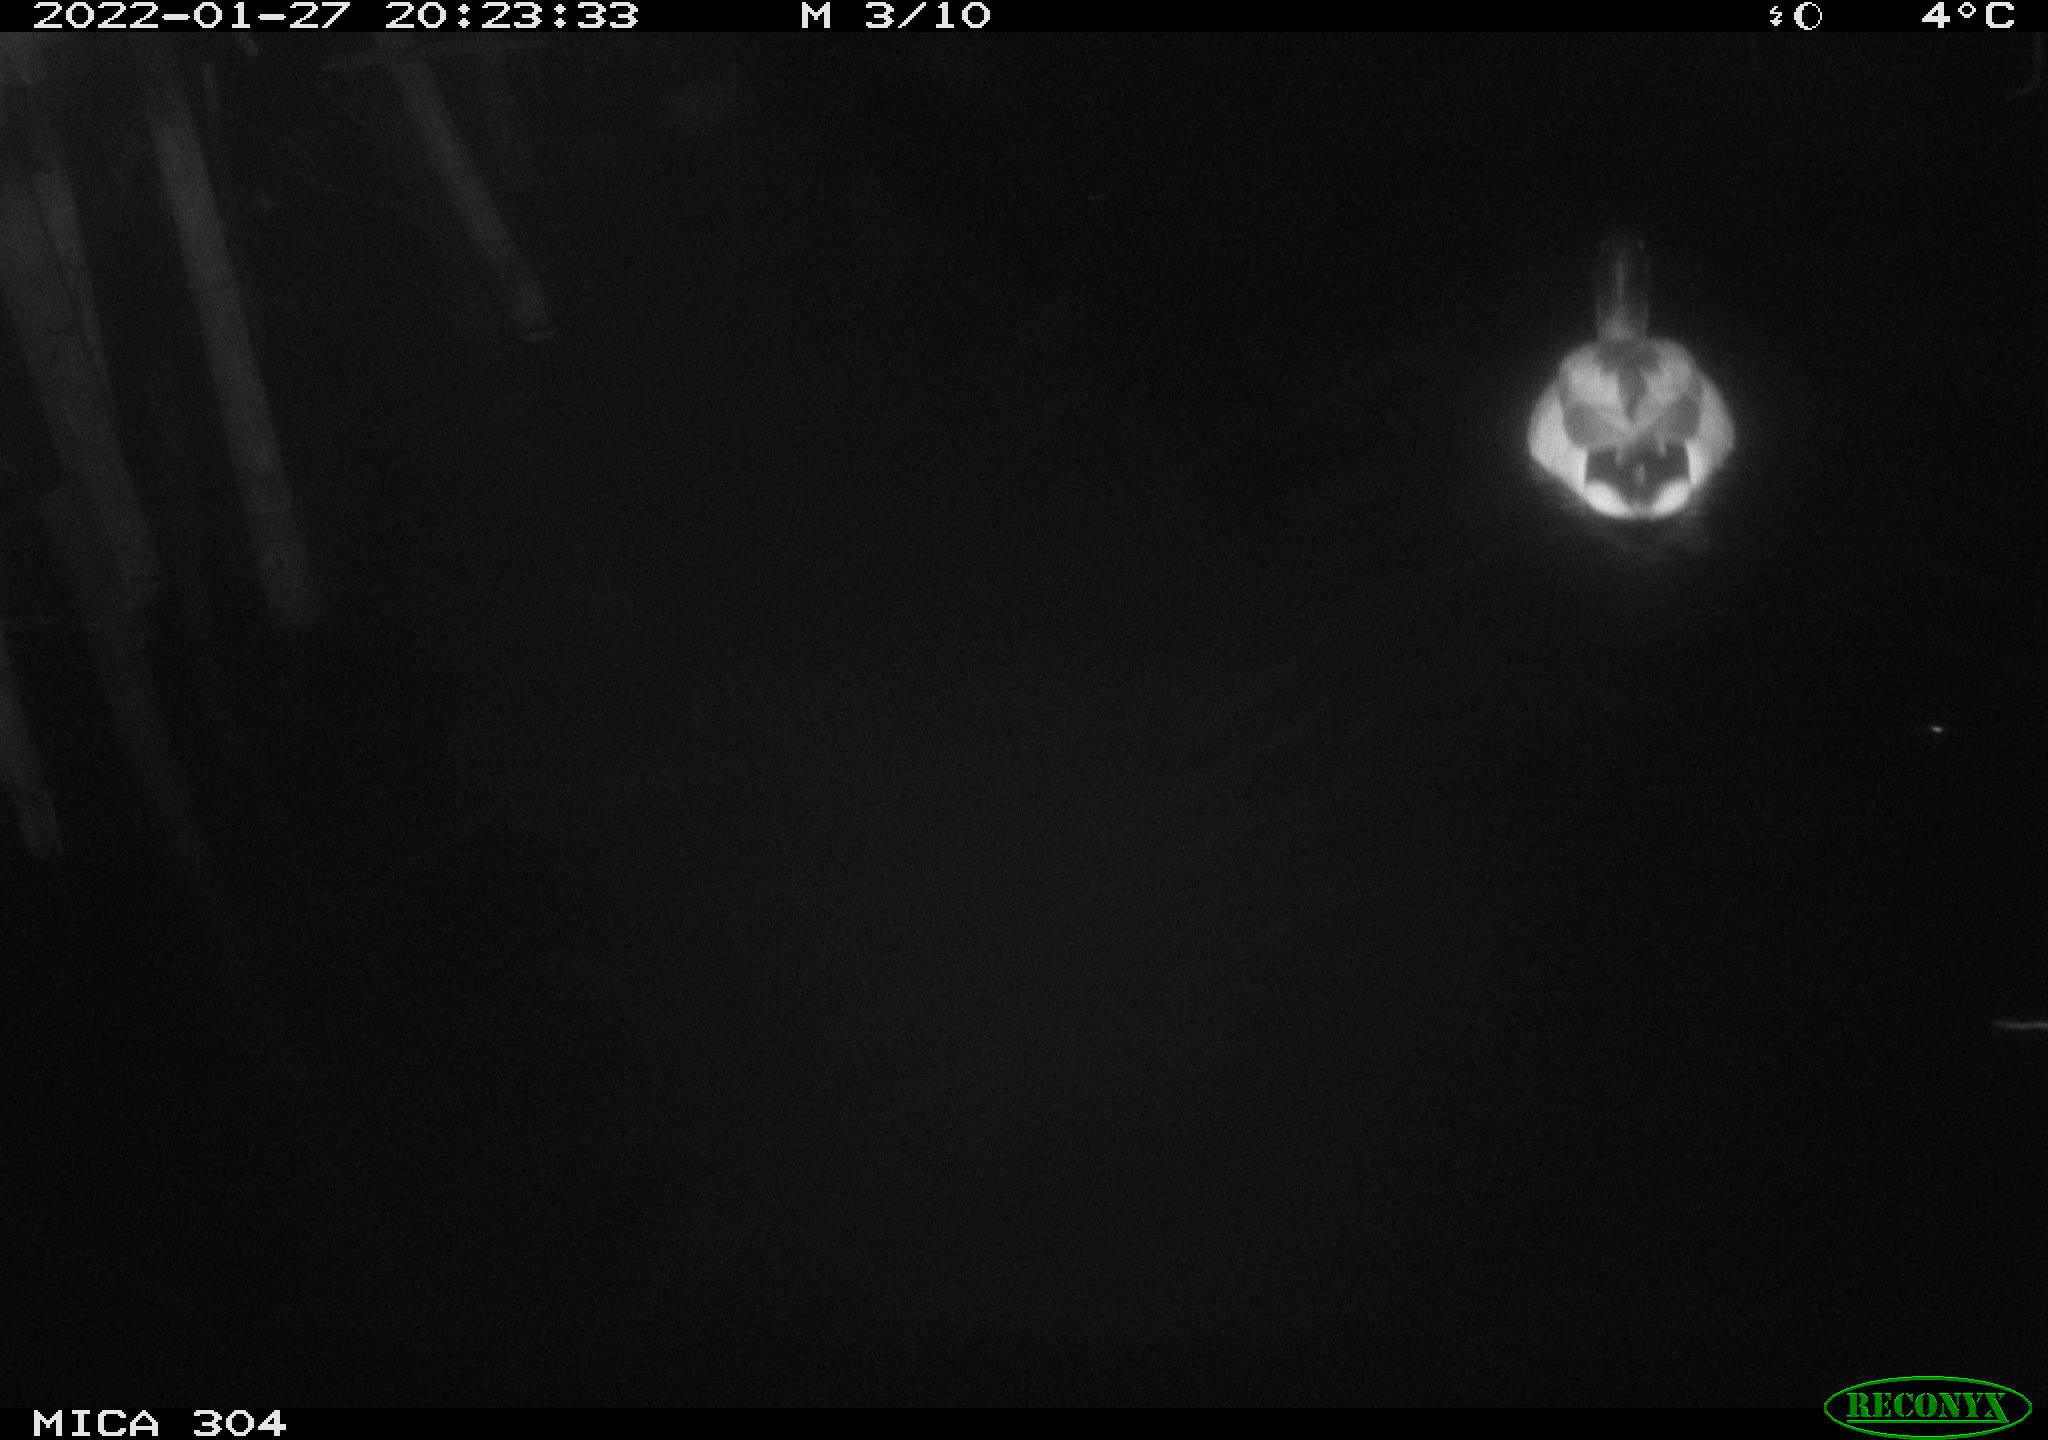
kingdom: Animalia
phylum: Chordata
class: Aves
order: Anseriformes
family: Anatidae
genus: Anas
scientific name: Anas
